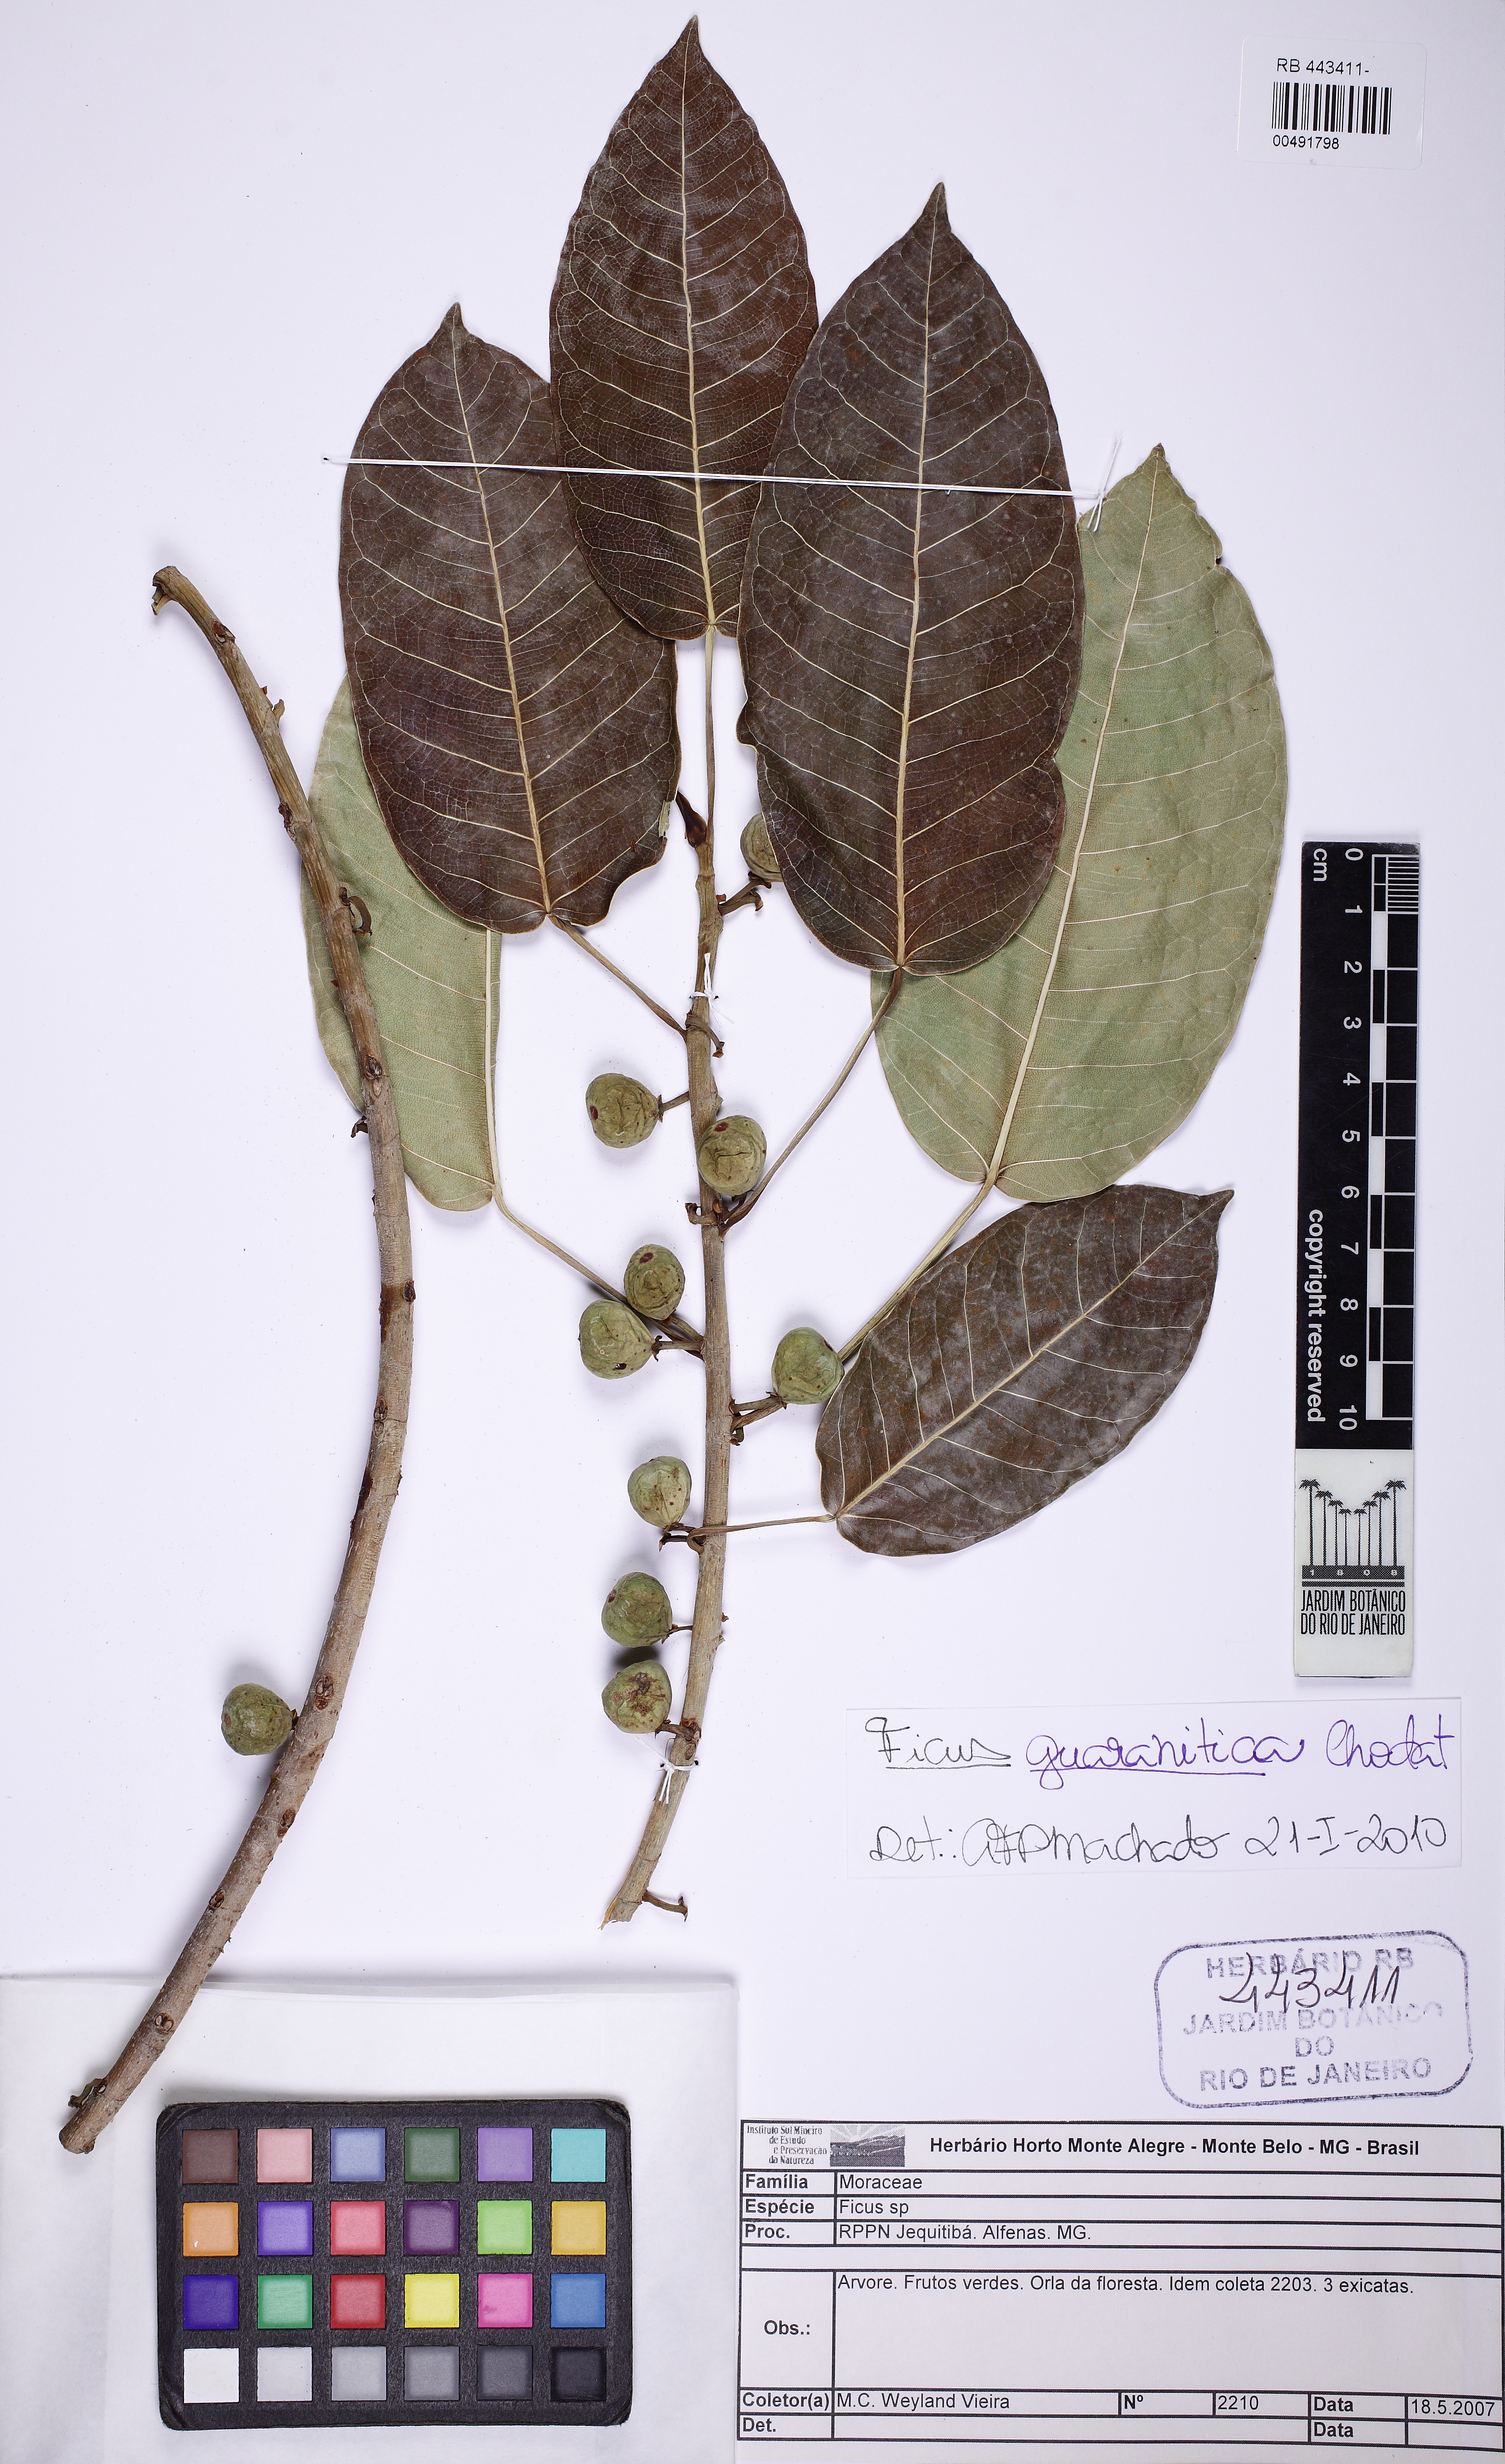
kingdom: Plantae
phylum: Tracheophyta
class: Magnoliopsida
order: Rosales
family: Moraceae
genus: Ficus
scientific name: Ficus guaranitica
